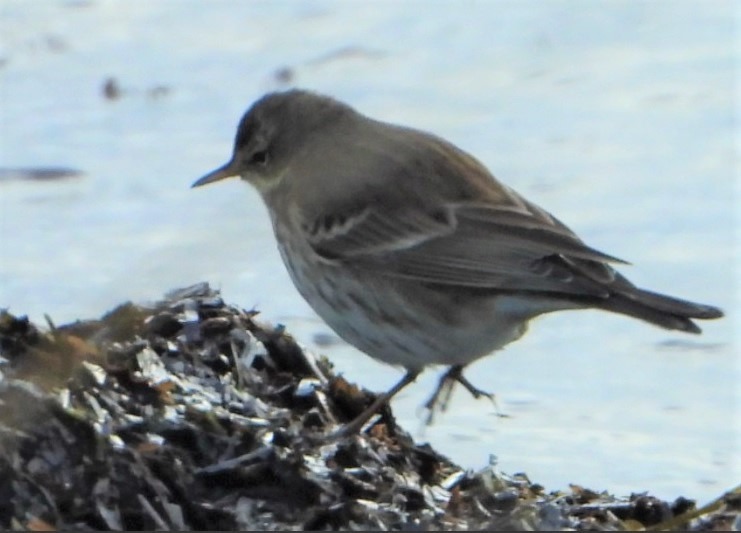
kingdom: Animalia
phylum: Chordata
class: Aves
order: Passeriformes
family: Motacillidae
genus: Anthus
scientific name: Anthus spinoletta
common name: Bjergpiber
